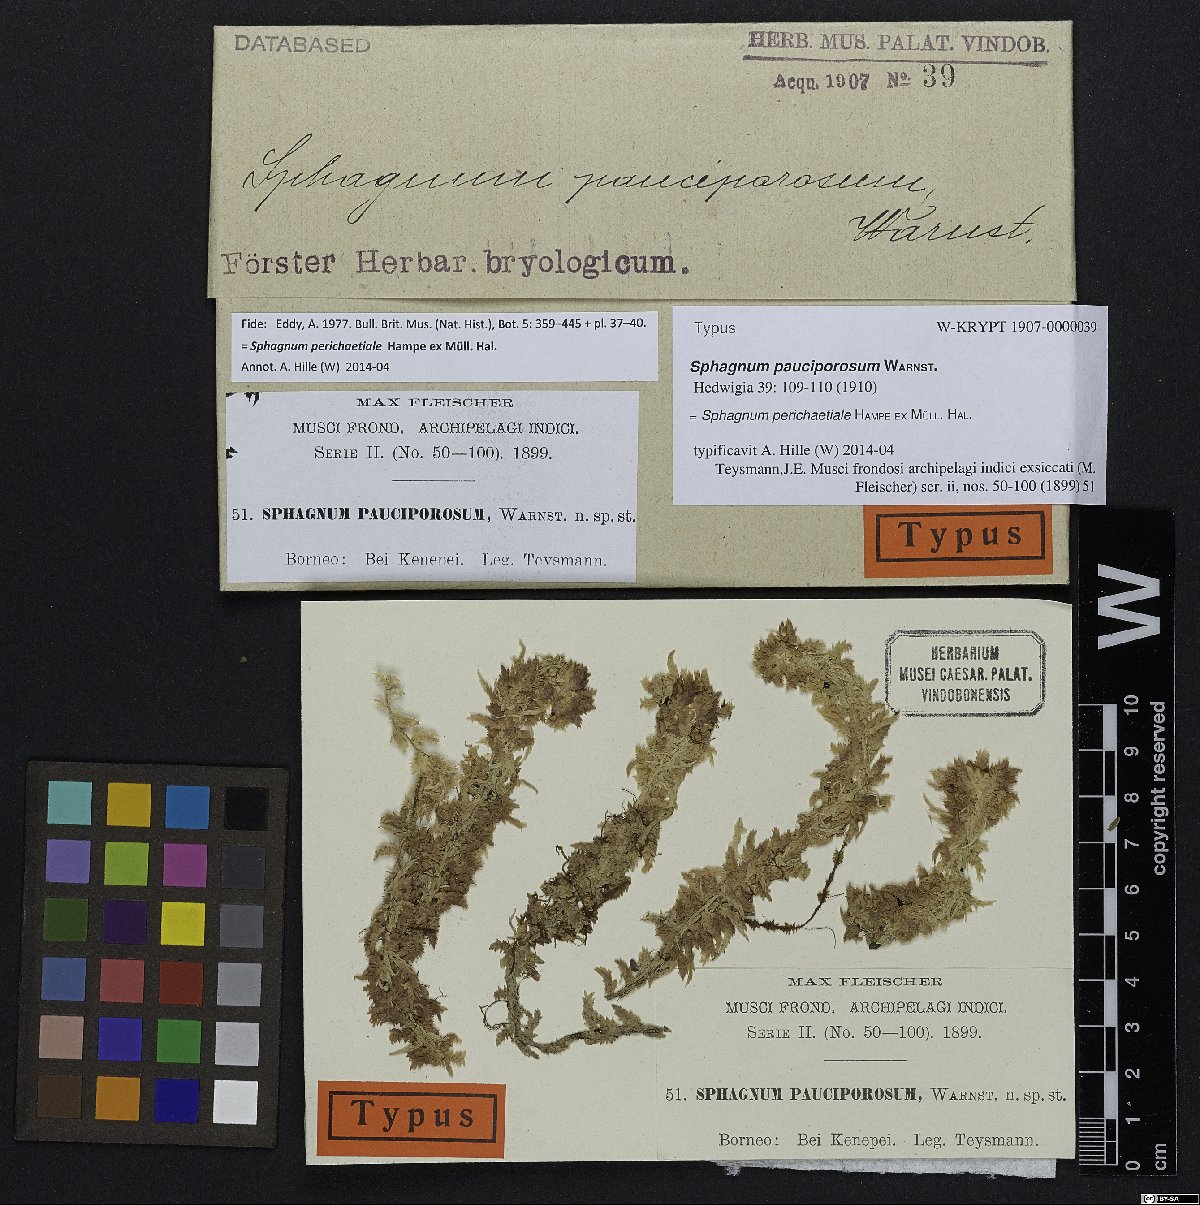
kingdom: Plantae
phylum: Bryophyta
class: Sphagnopsida
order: Sphagnales
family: Sphagnaceae
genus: Sphagnum
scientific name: Sphagnum perichaetiale
